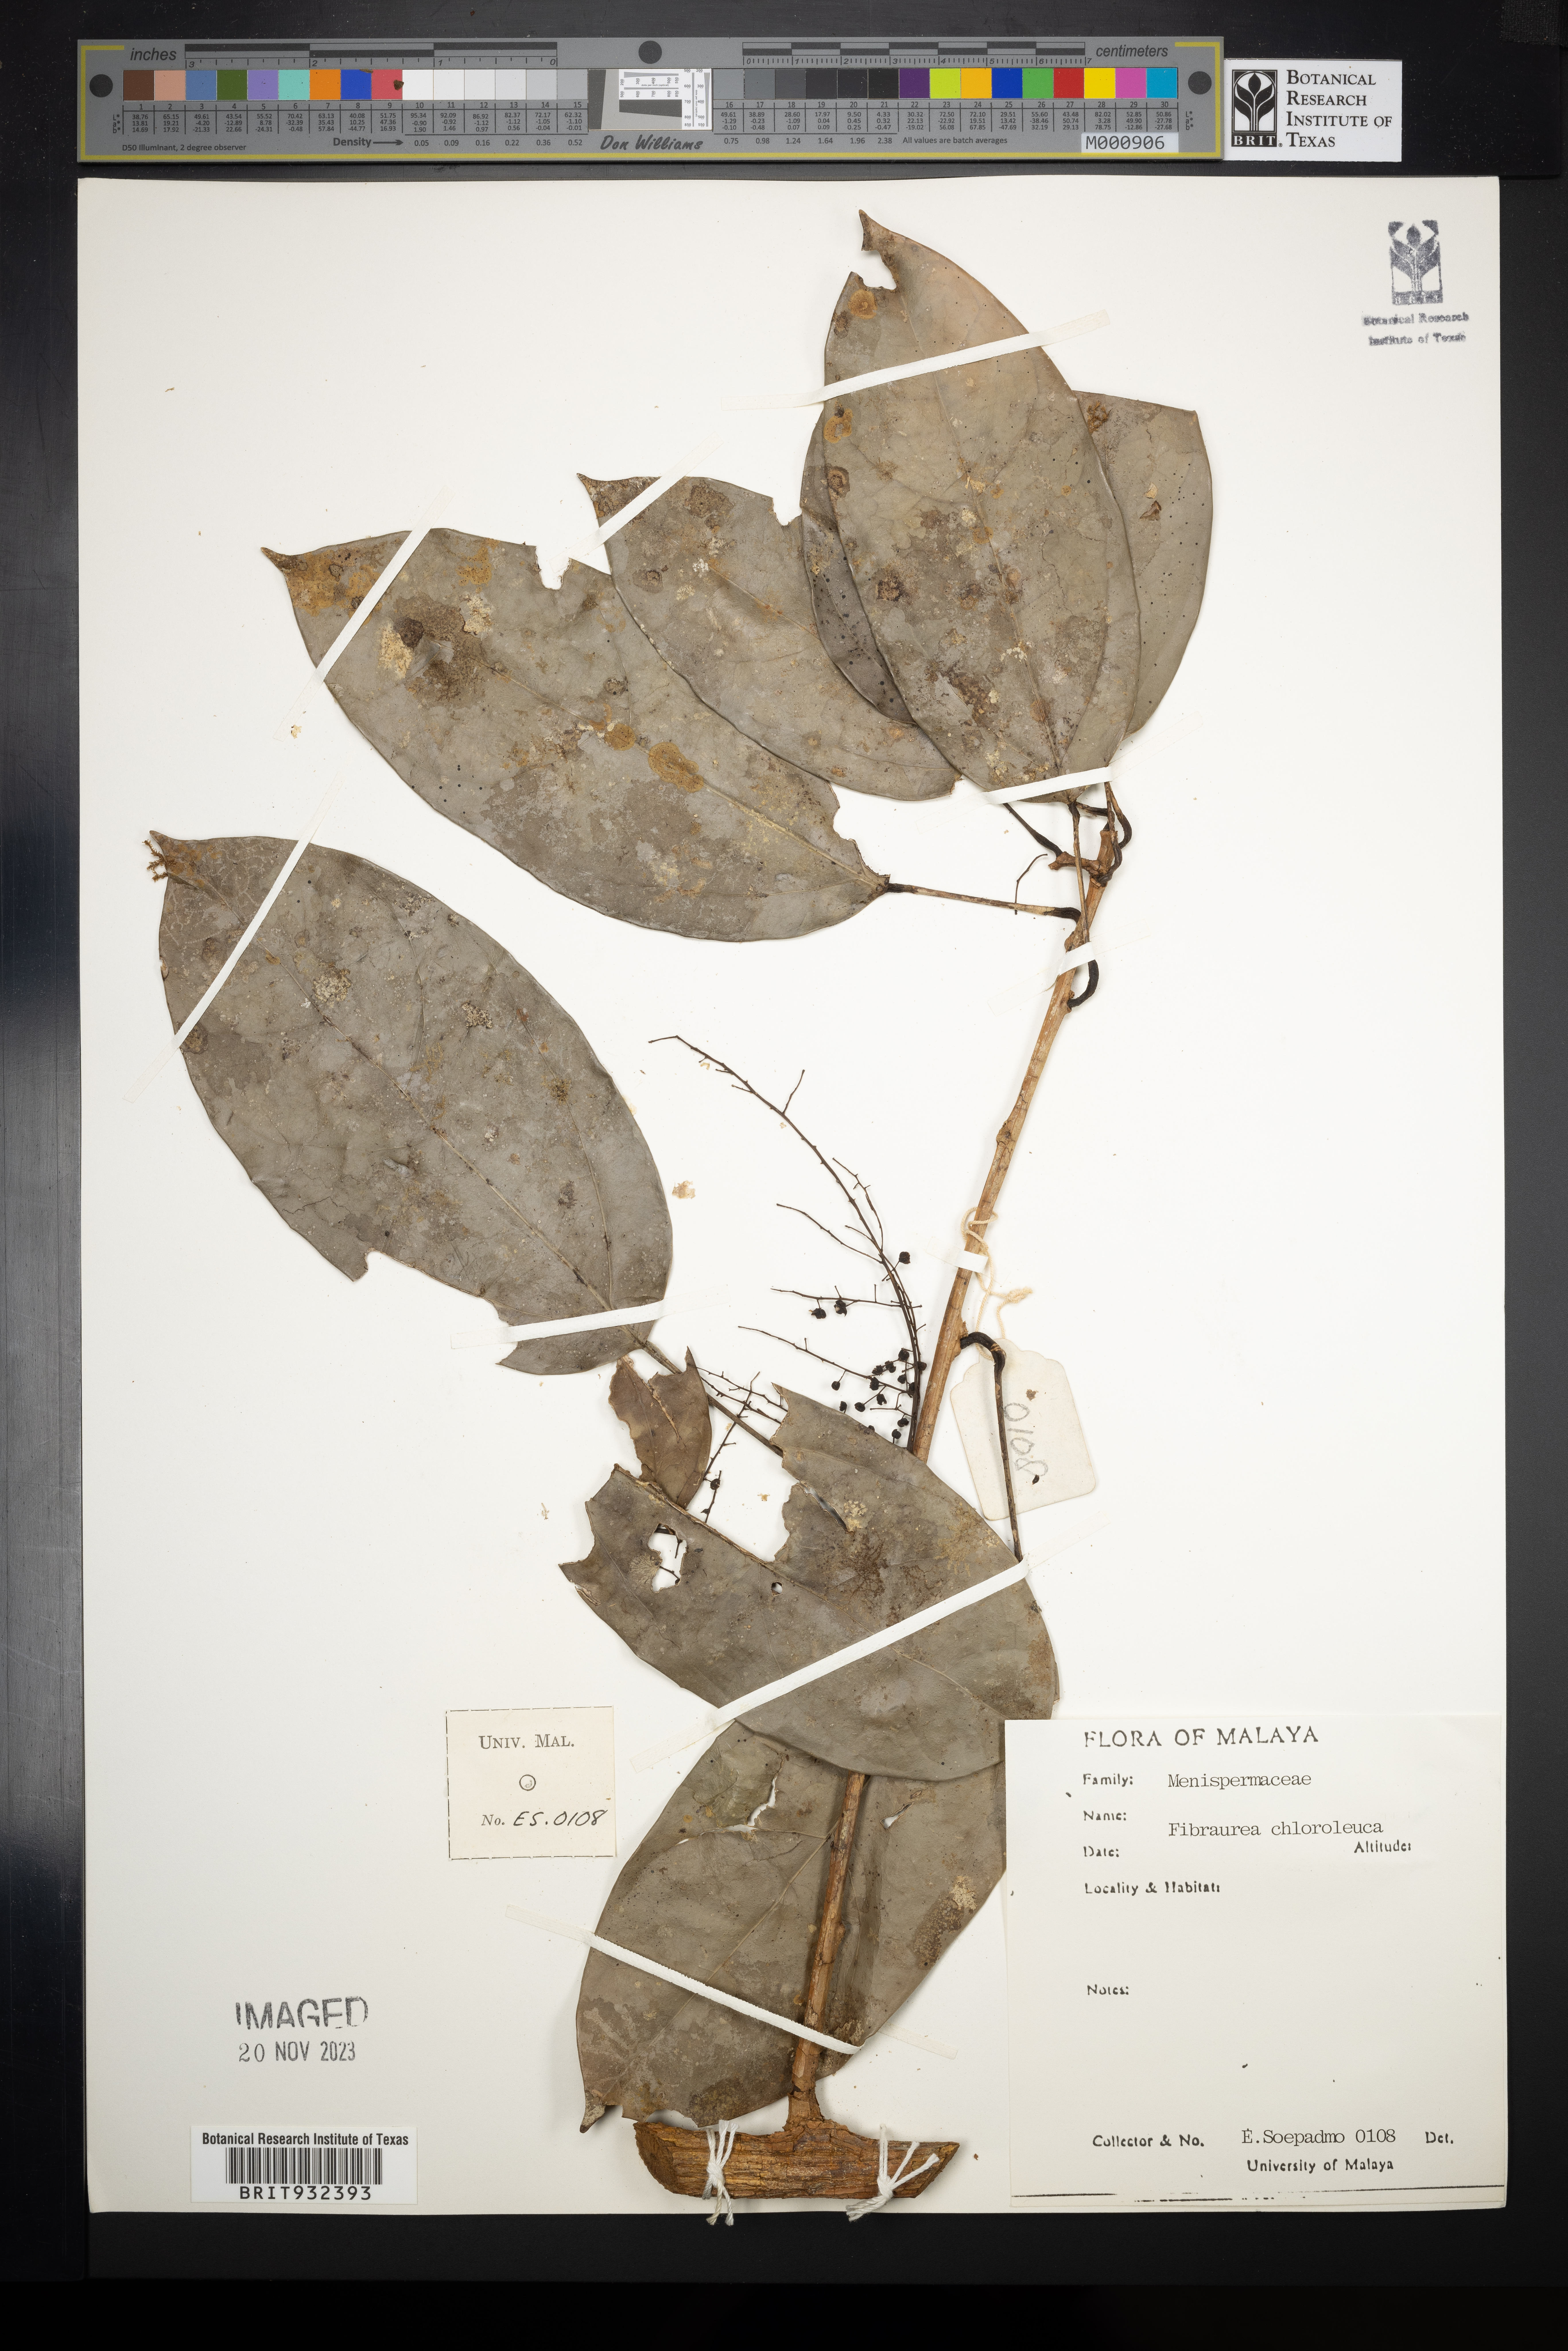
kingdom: Plantae
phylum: Tracheophyta
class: Magnoliopsida
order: Ranunculales
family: Menispermaceae
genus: Fibraurea
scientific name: Fibraurea
